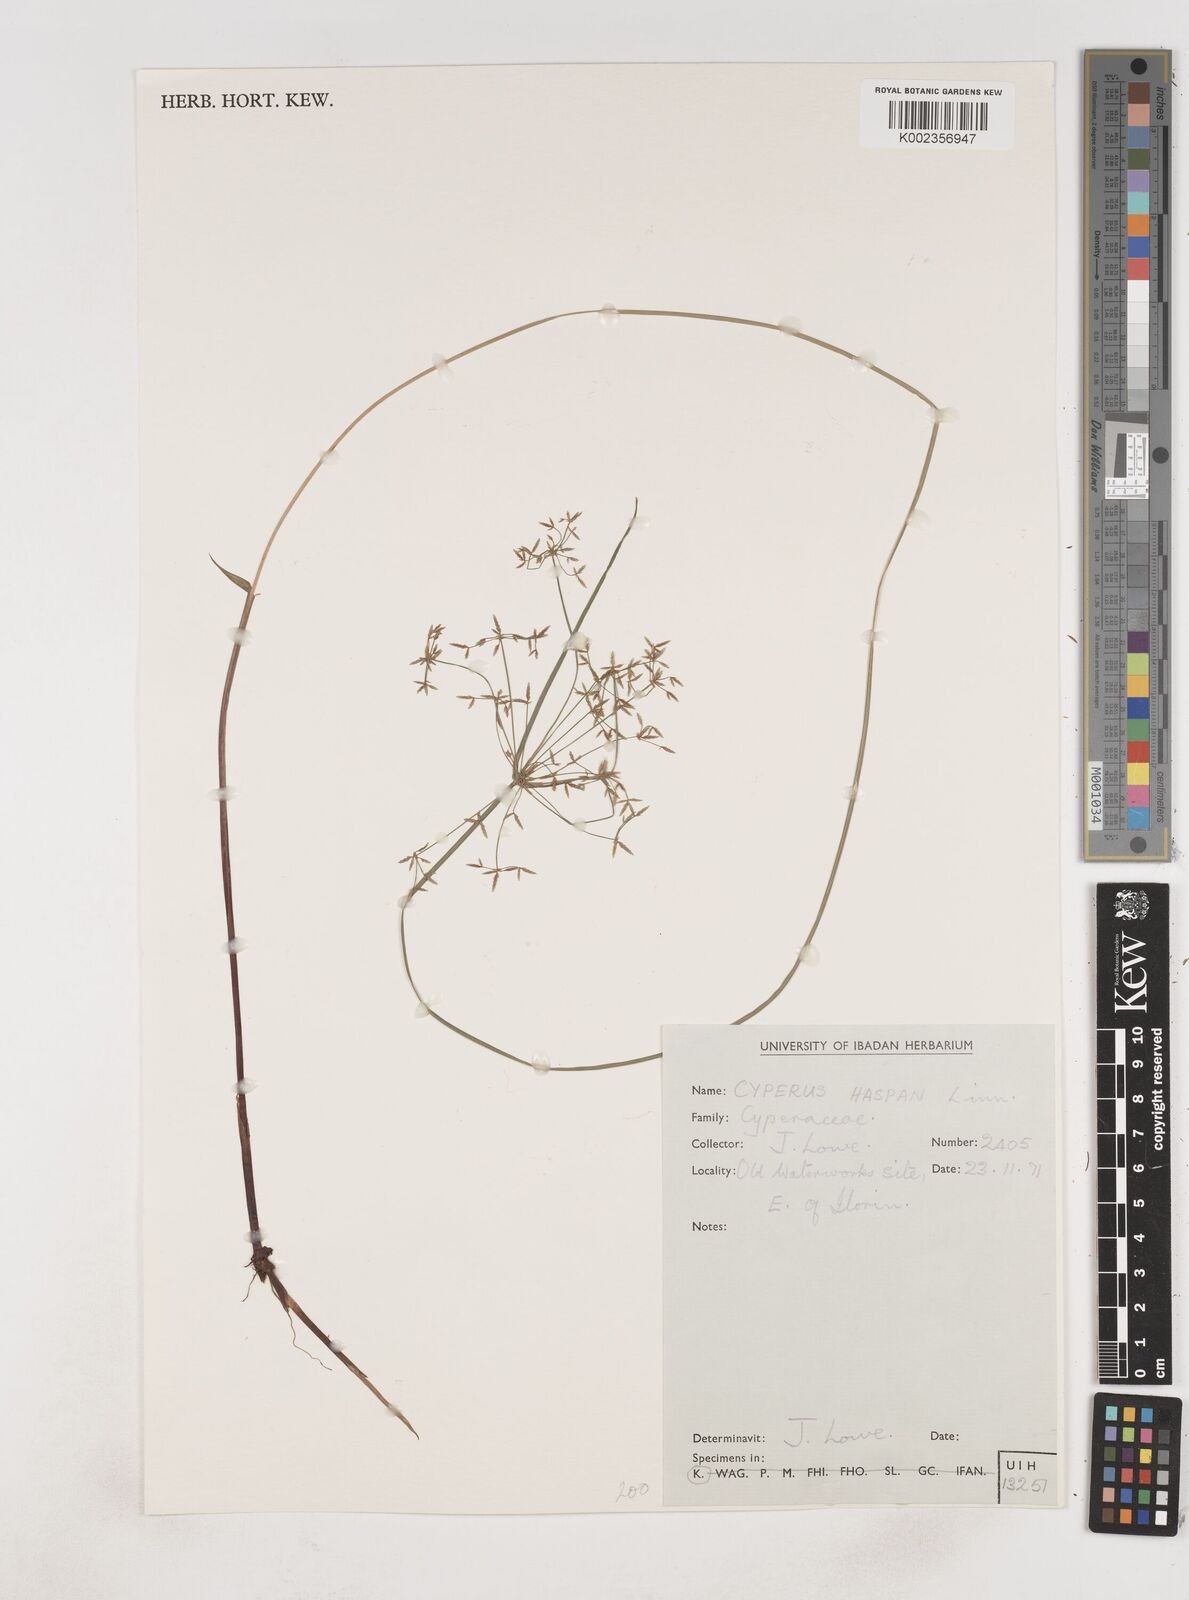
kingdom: Plantae
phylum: Tracheophyta
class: Liliopsida
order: Poales
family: Cyperaceae
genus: Cyperus
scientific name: Cyperus haspan
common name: Haspan flatsedge
